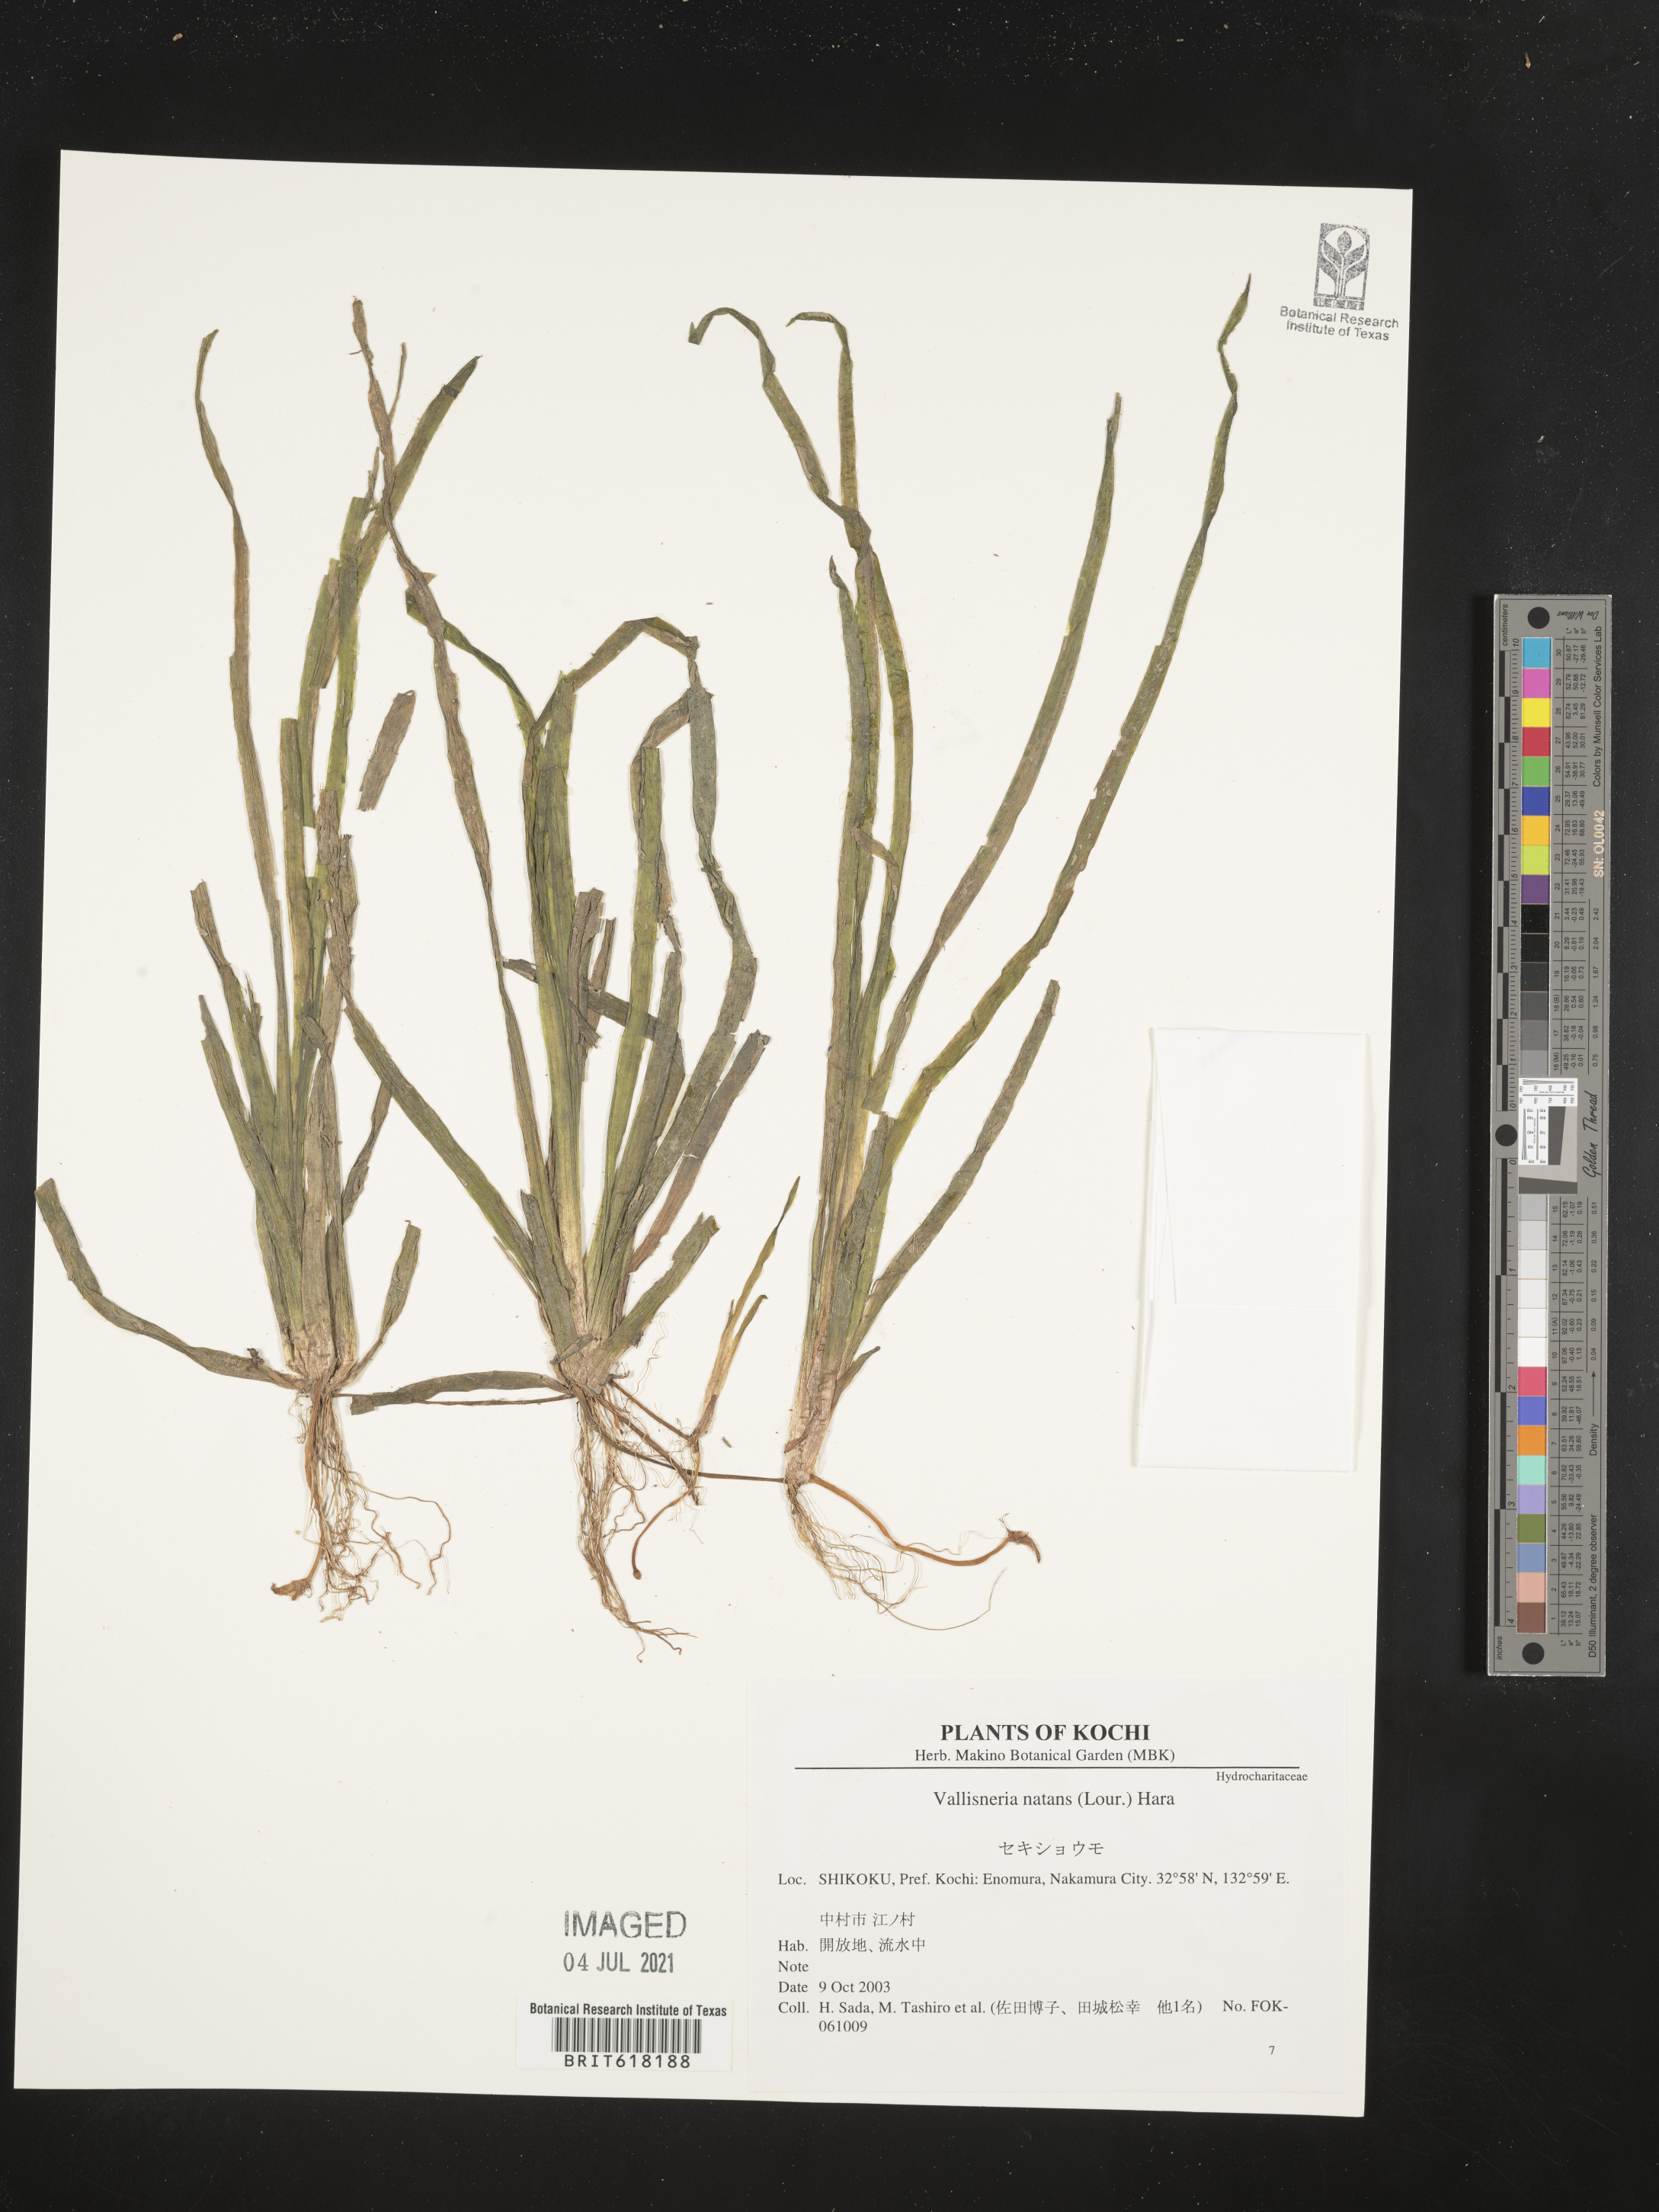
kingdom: Plantae
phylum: Tracheophyta
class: Liliopsida
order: Alismatales
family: Hydrocharitaceae
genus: Vallisneria
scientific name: Vallisneria natans
